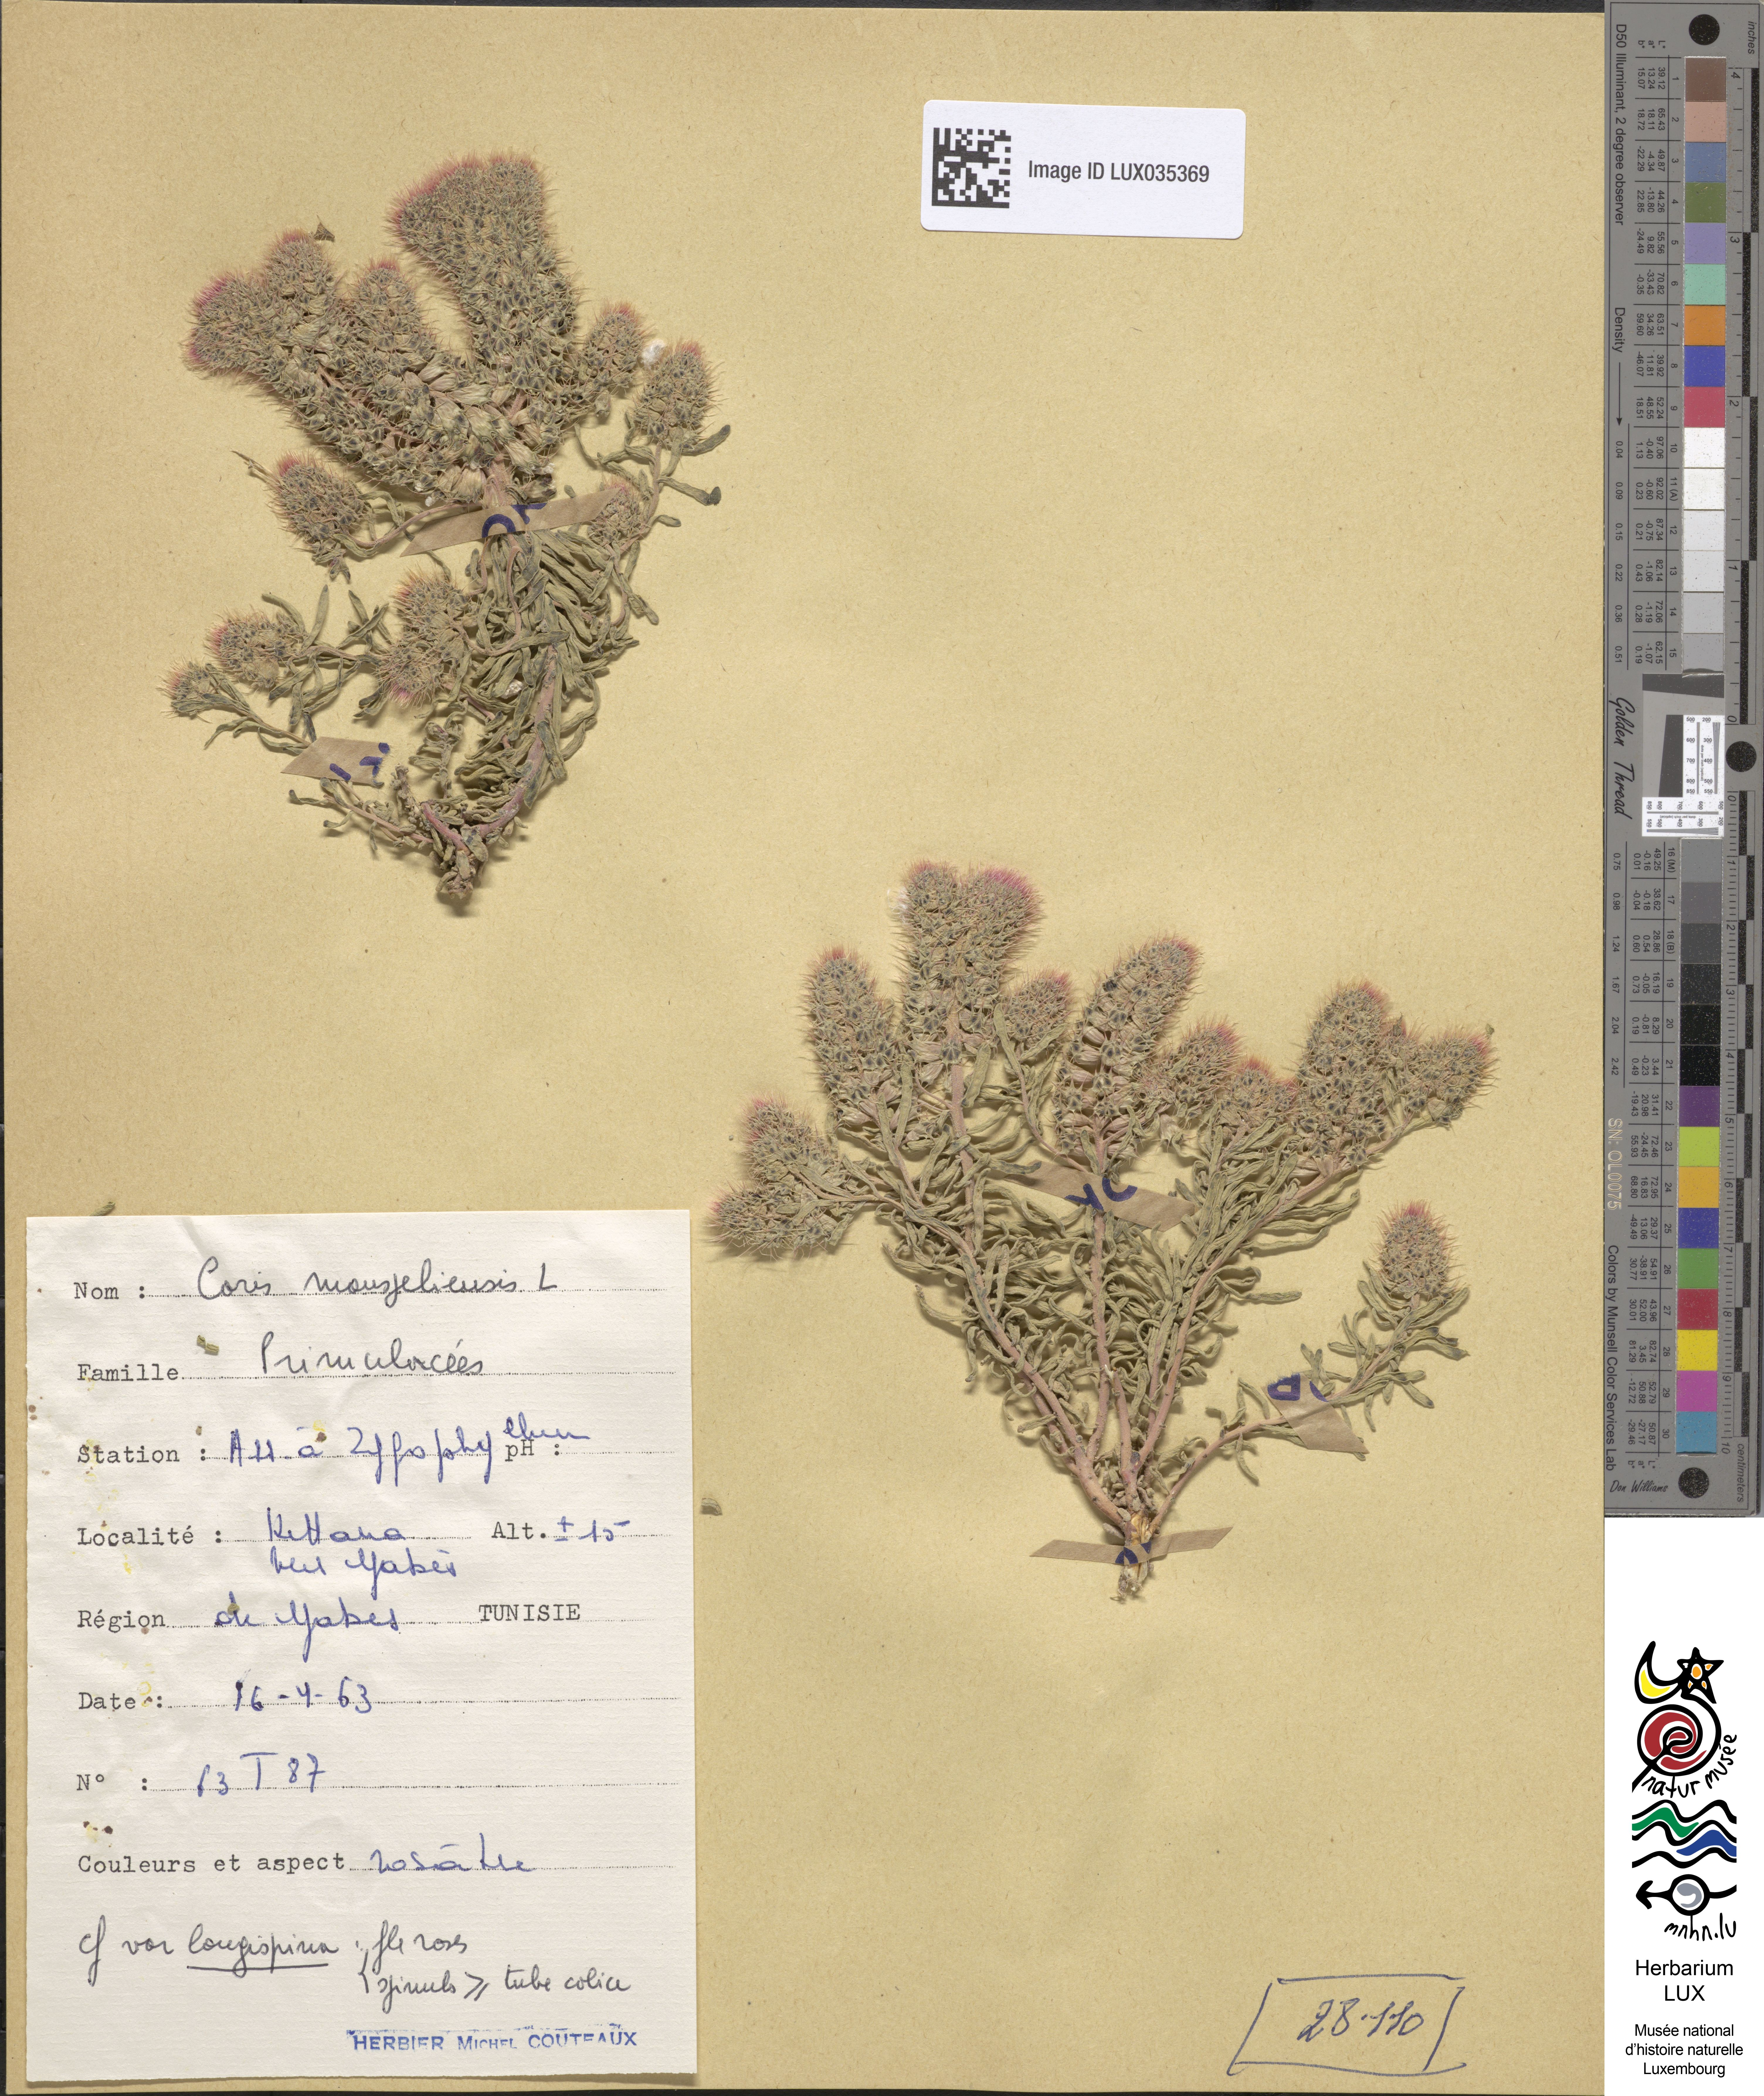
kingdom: Plantae
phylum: Tracheophyta
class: Magnoliopsida
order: Ericales
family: Primulaceae
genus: Coris
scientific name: Coris monspeliensis
